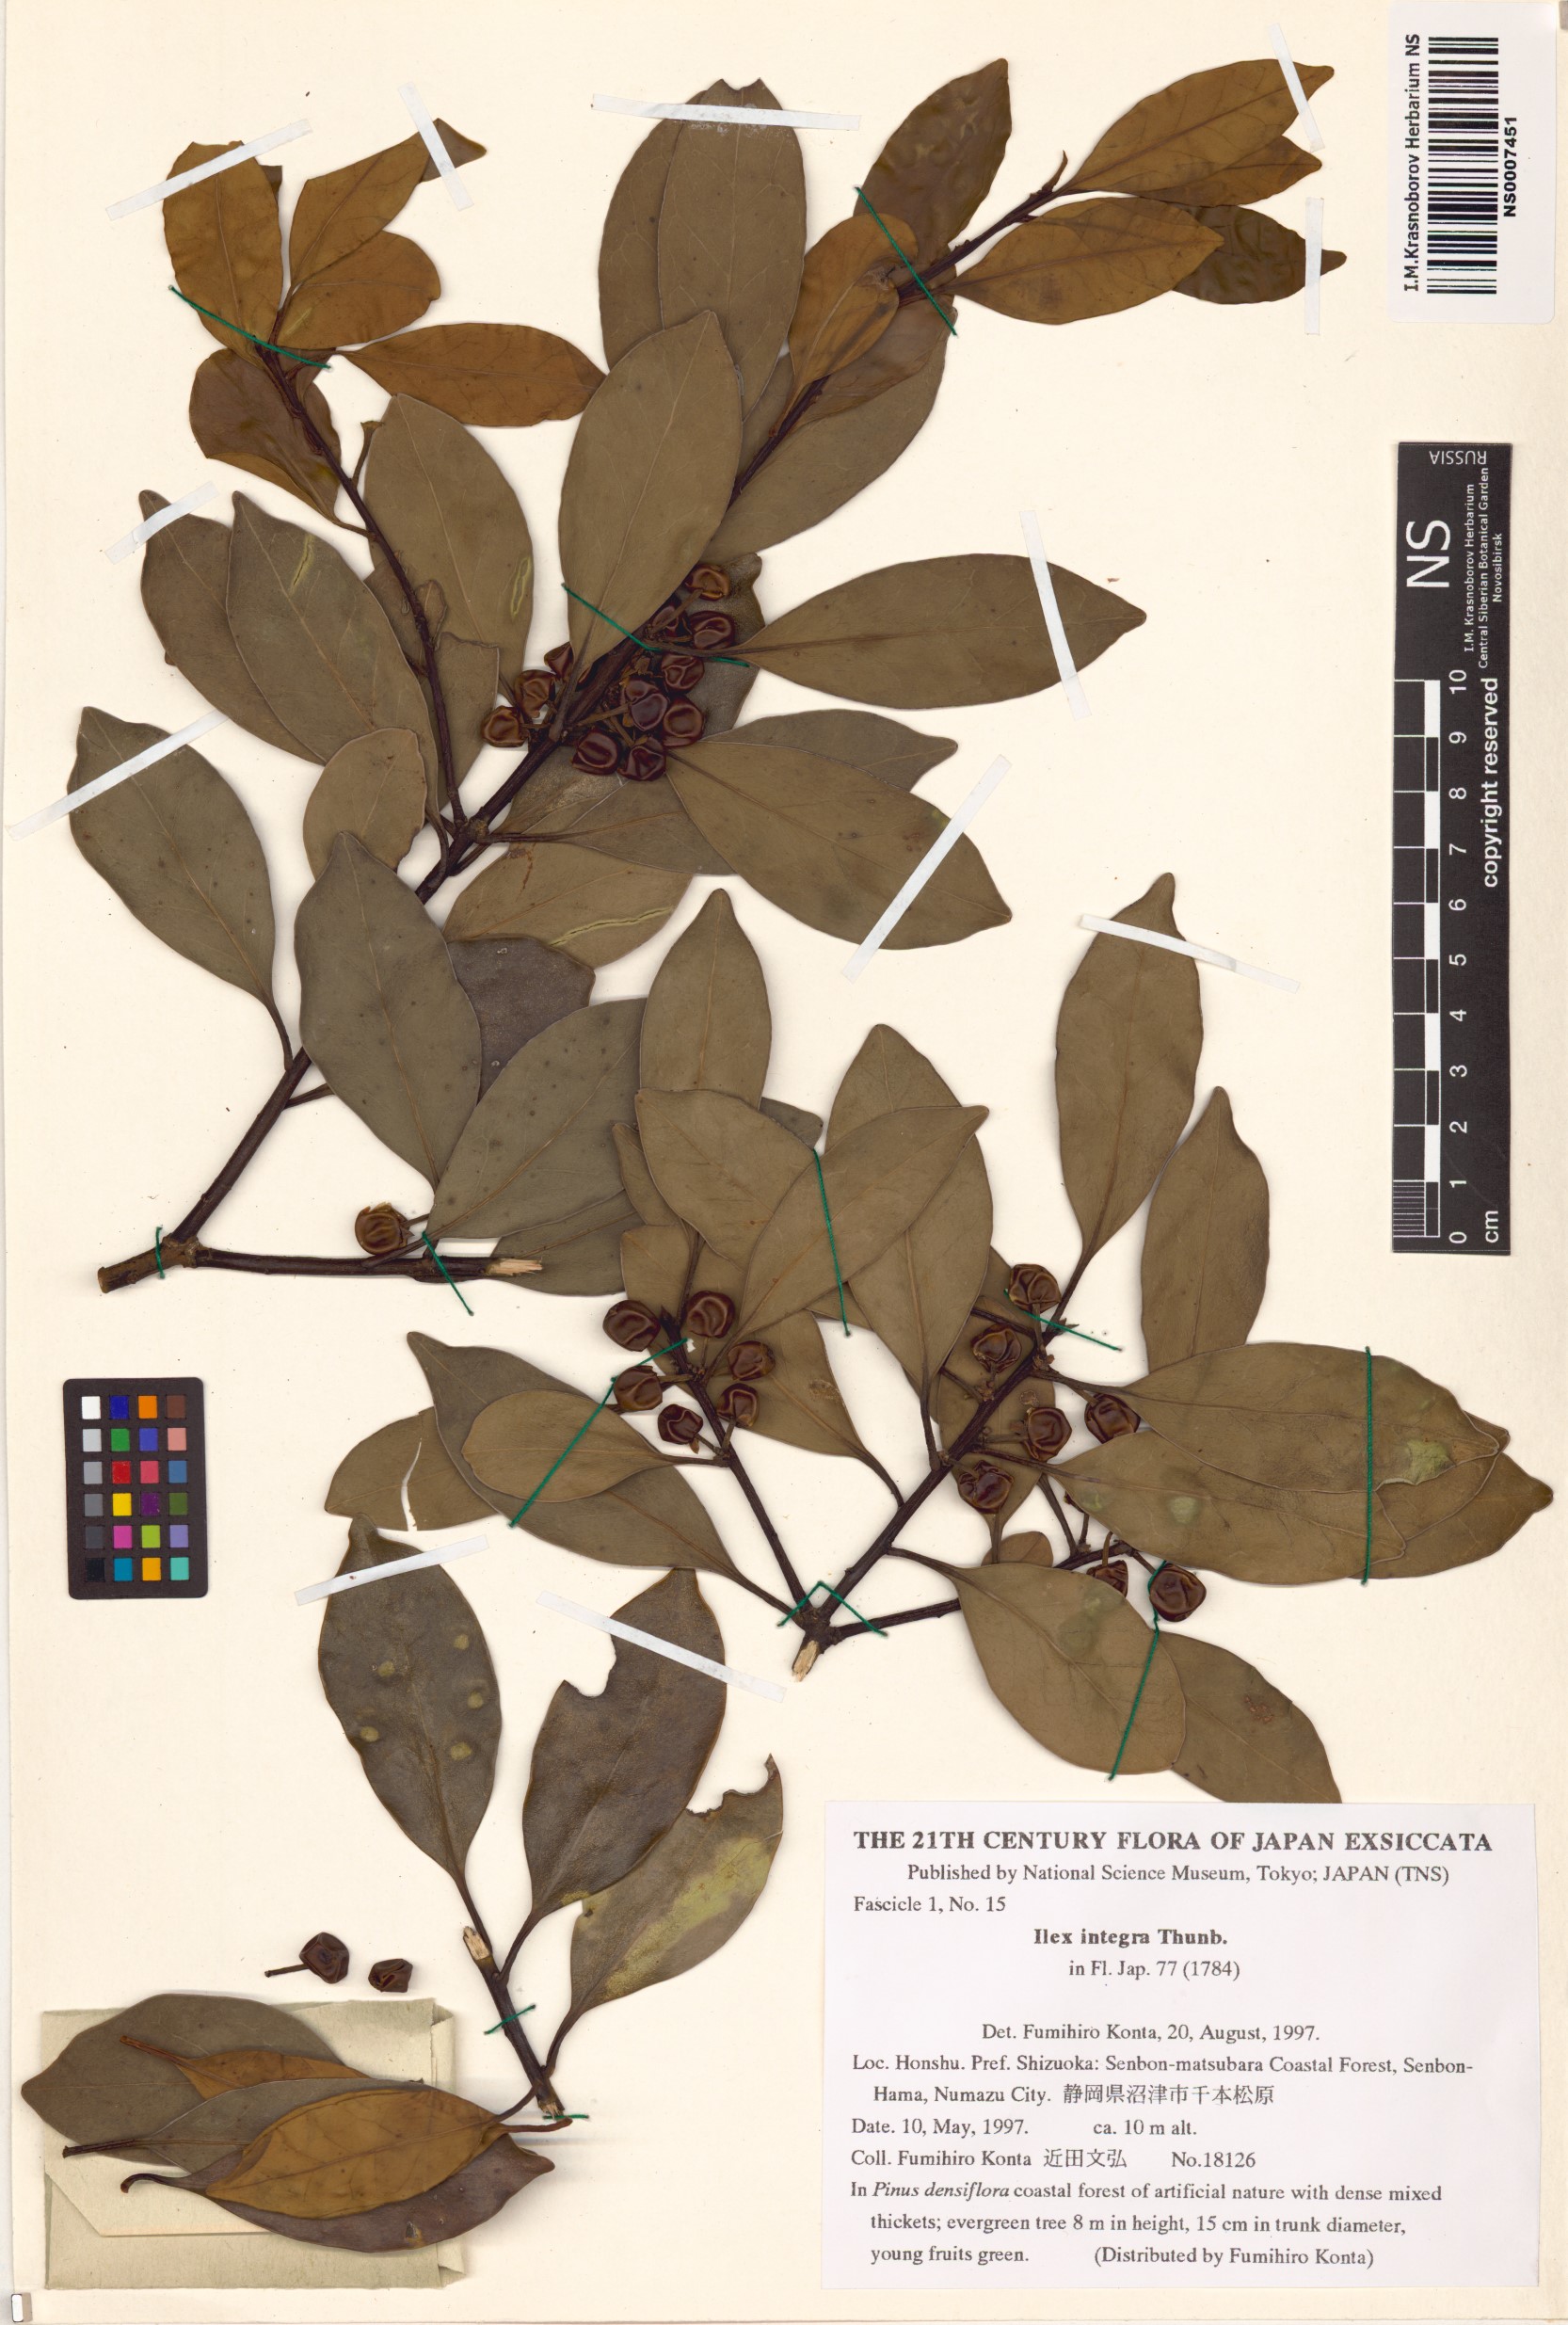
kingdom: Plantae
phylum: Tracheophyta
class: Magnoliopsida
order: Aquifoliales
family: Aquifoliaceae
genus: Ilex
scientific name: Ilex integra
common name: Mochitree
